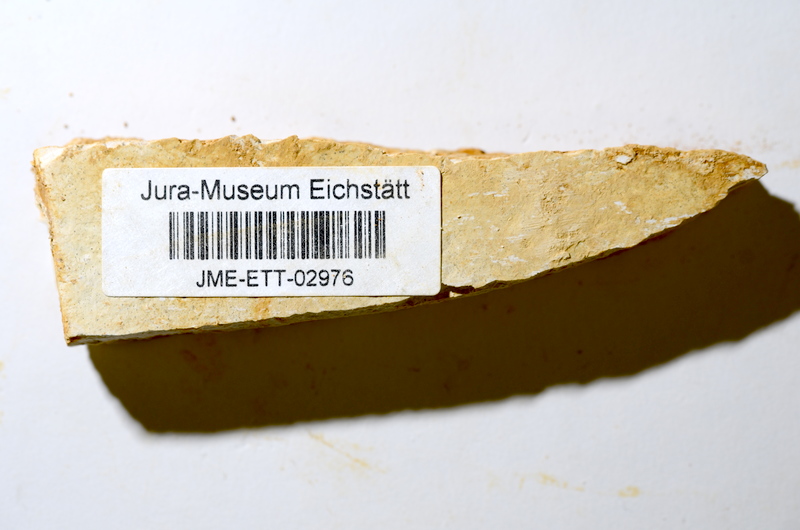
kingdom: Animalia
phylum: Chordata
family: Ascalaboidae
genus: Ebertichthys
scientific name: Ebertichthys ettlingensis
